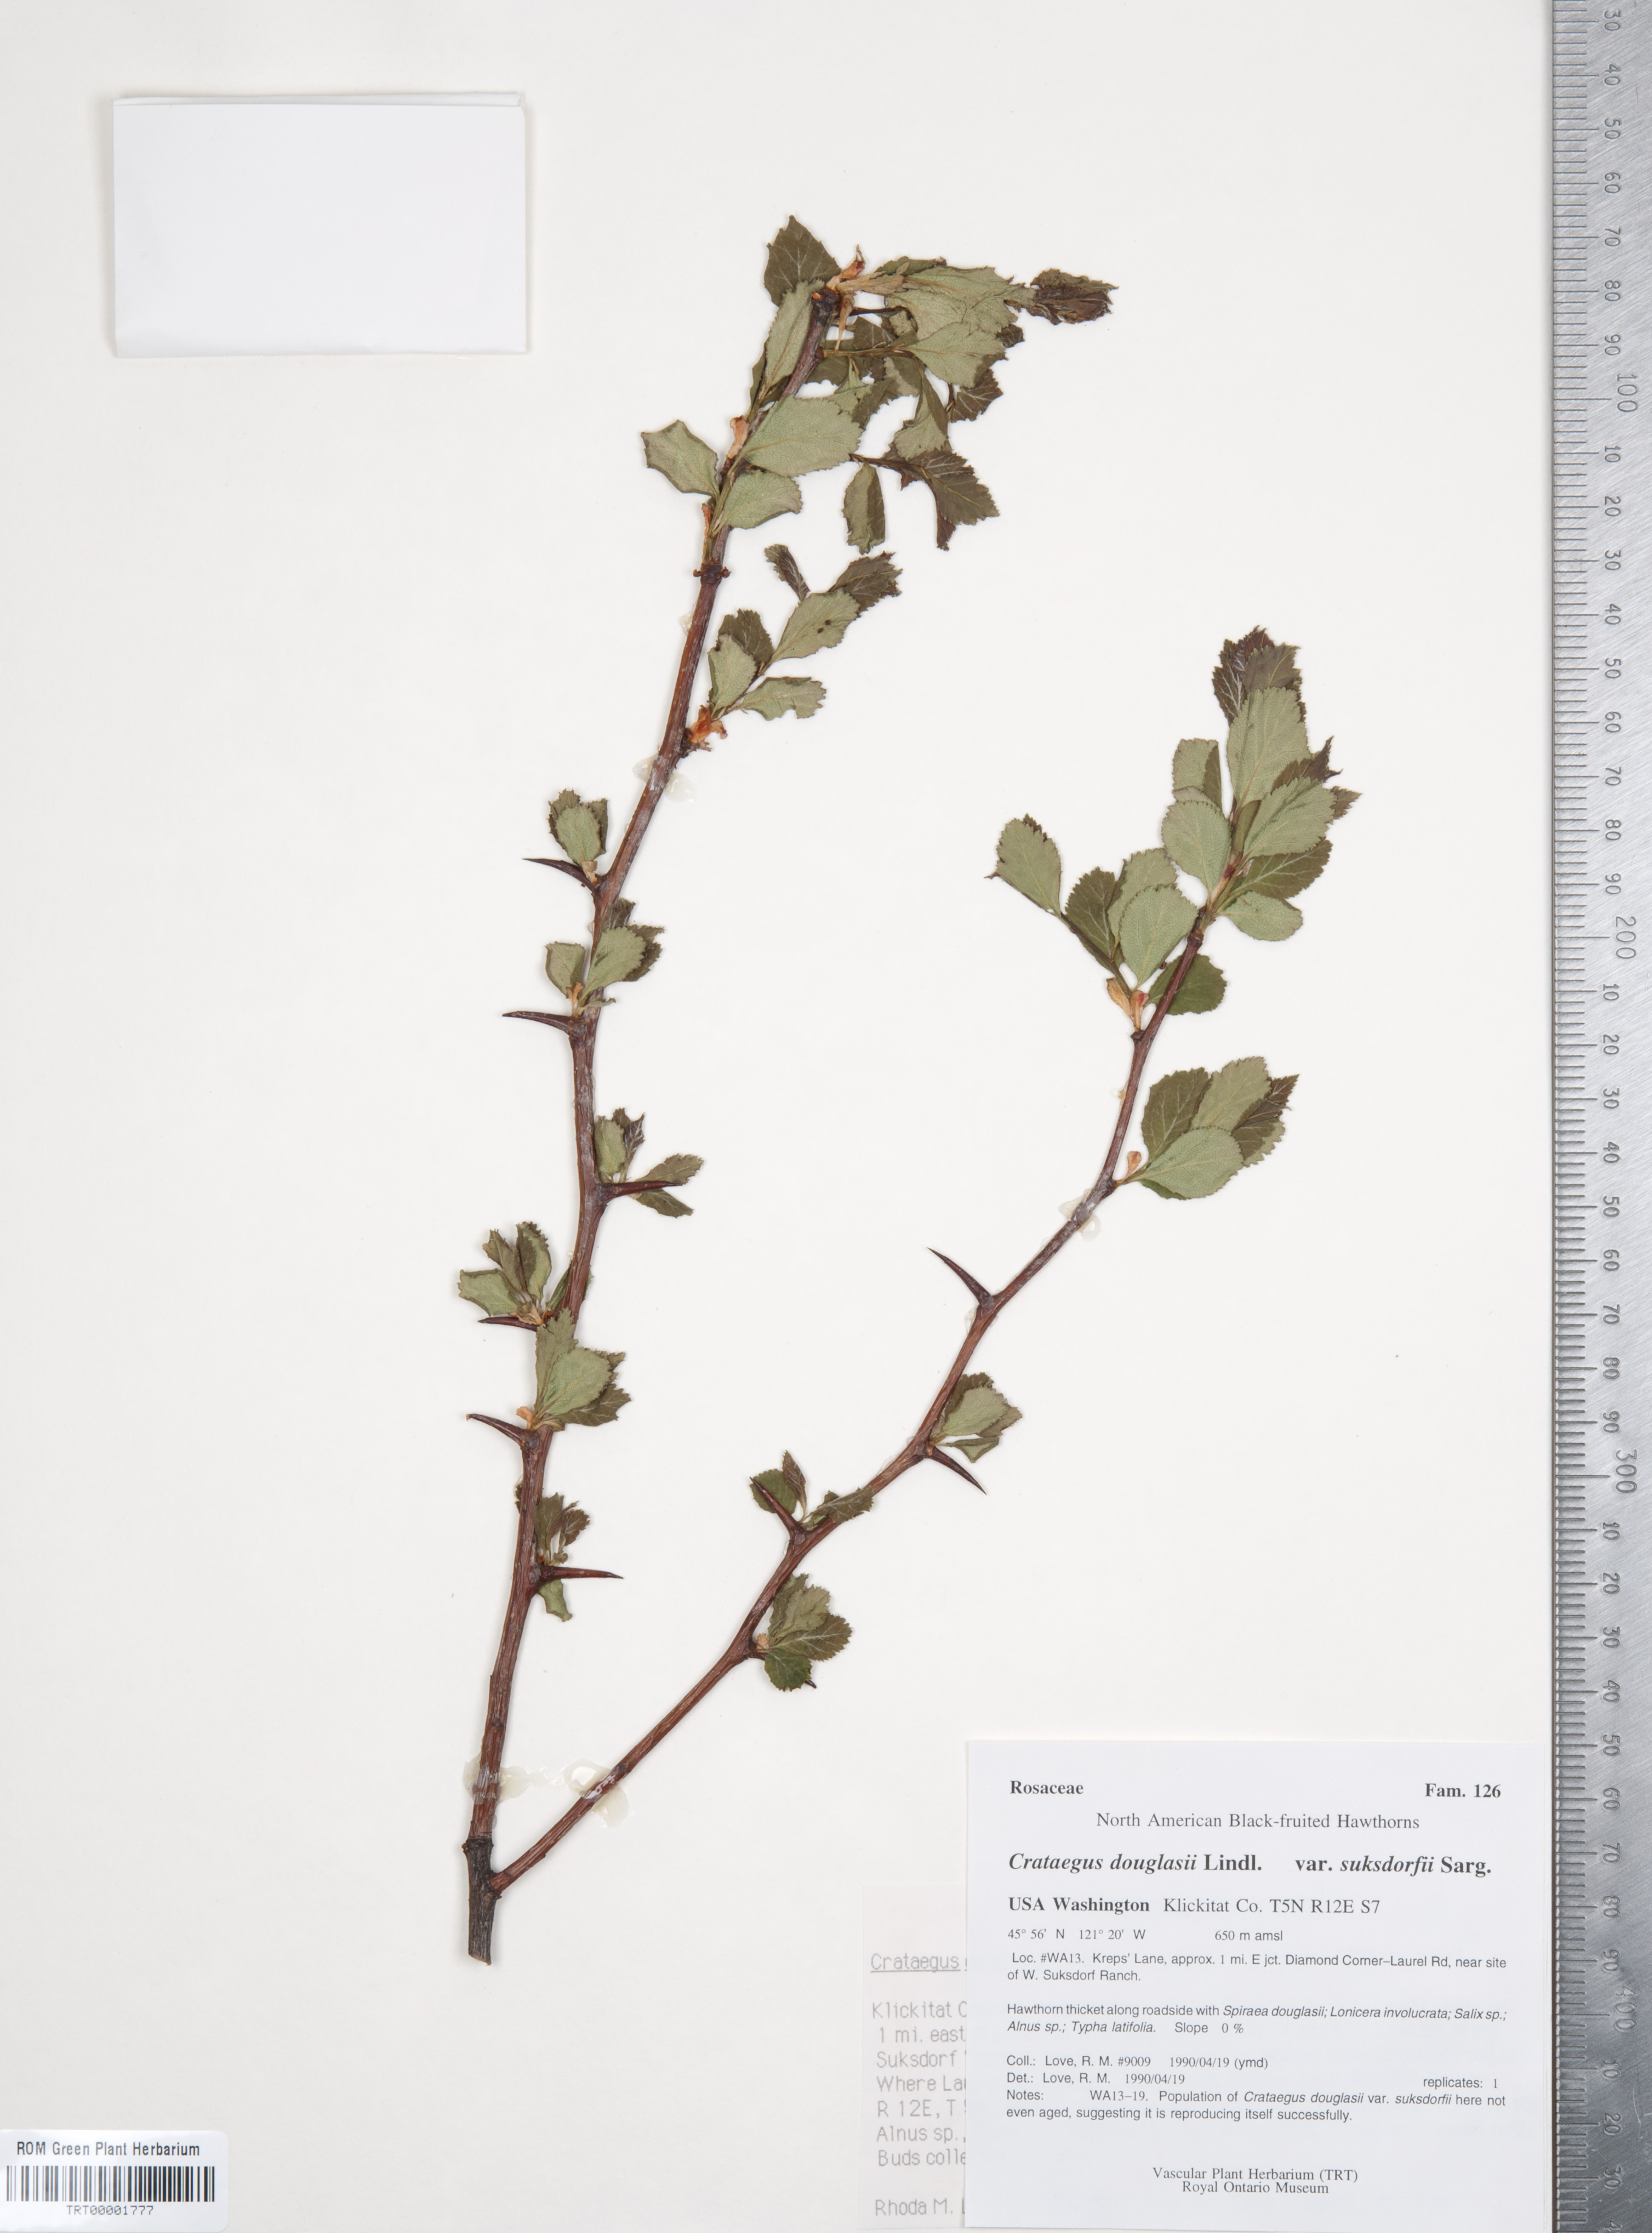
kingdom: Plantae
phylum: Tracheophyta
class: Magnoliopsida
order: Rosales
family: Rosaceae
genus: Crataegus
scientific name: Crataegus gaylussacia
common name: Huckleberry hawthorn
